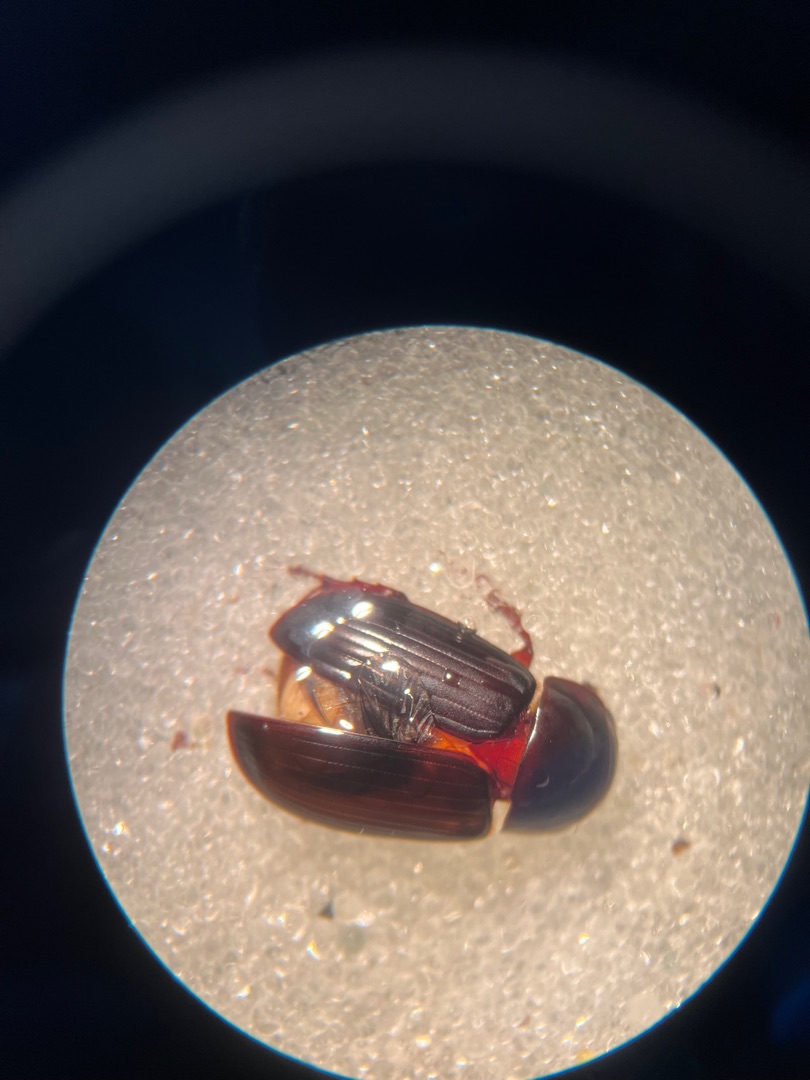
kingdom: Animalia
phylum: Arthropoda
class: Insecta
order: Coleoptera
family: Scarabaeidae
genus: Acrossus
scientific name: Acrossus rufipes
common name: Rødbenet møgbille
